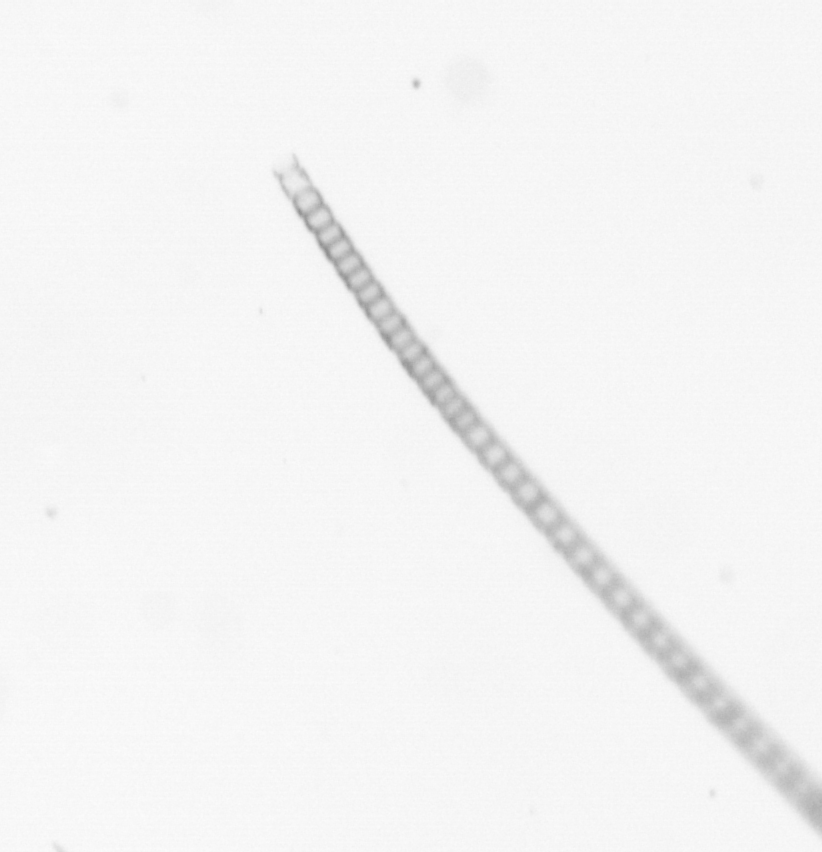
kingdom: Chromista
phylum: Ochrophyta
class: Bacillariophyceae
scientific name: Bacillariophyceae
